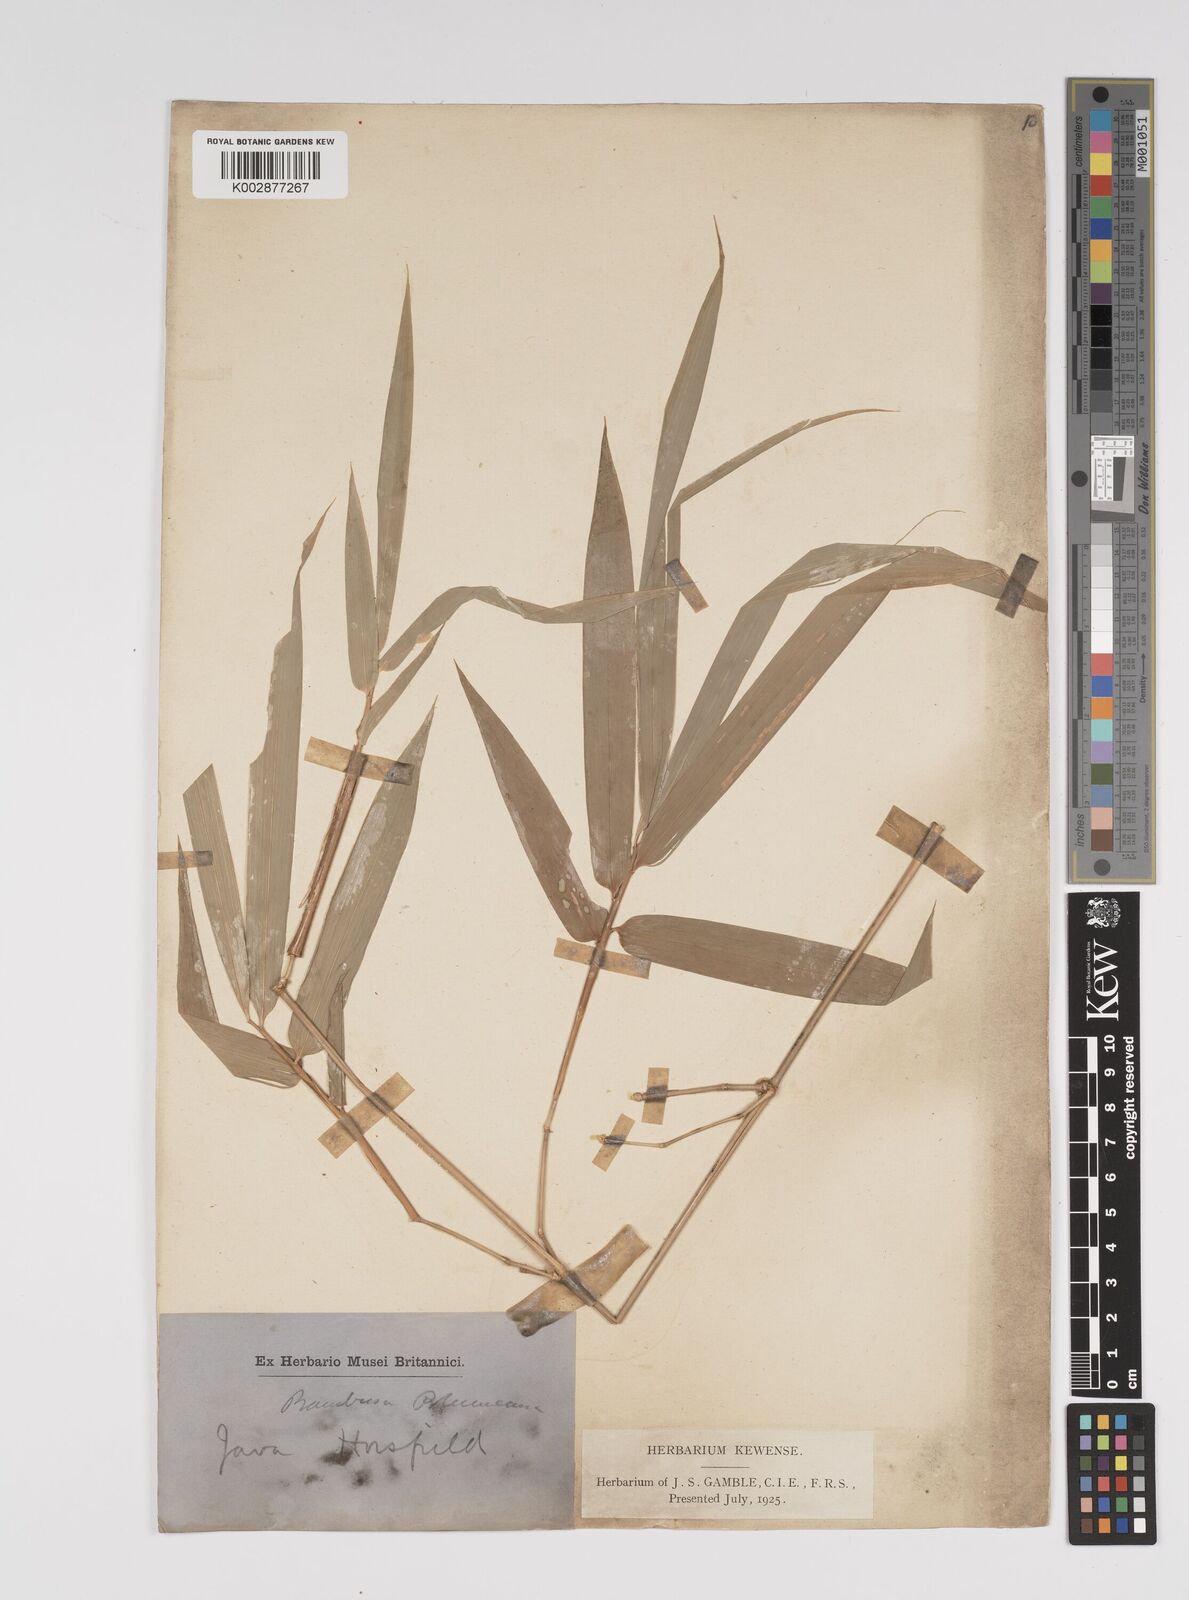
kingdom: Plantae
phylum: Tracheophyta
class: Liliopsida
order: Poales
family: Poaceae
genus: Bambusa
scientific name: Bambusa spinosa
